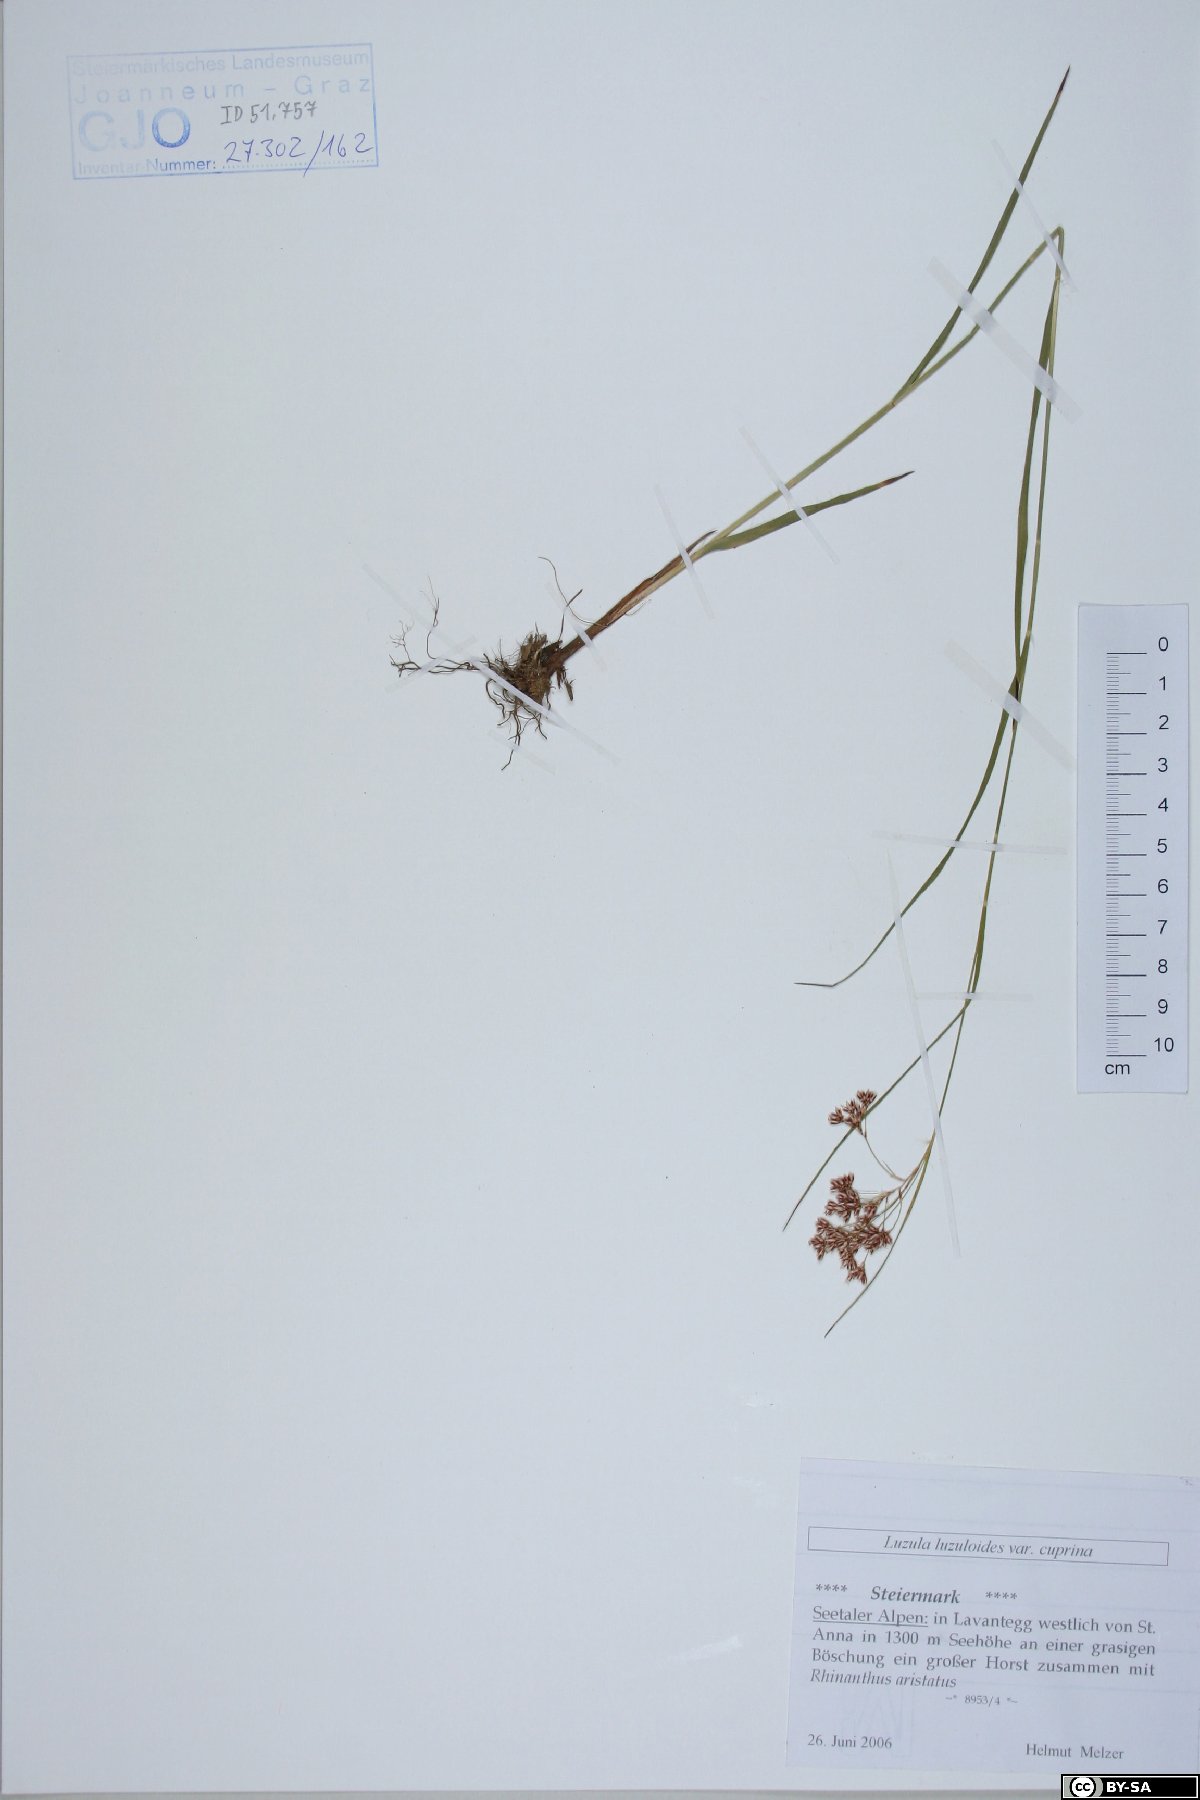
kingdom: Plantae
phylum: Tracheophyta
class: Liliopsida
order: Poales
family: Juncaceae
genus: Luzula
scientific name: Luzula luzuloides
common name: White wood-rush
